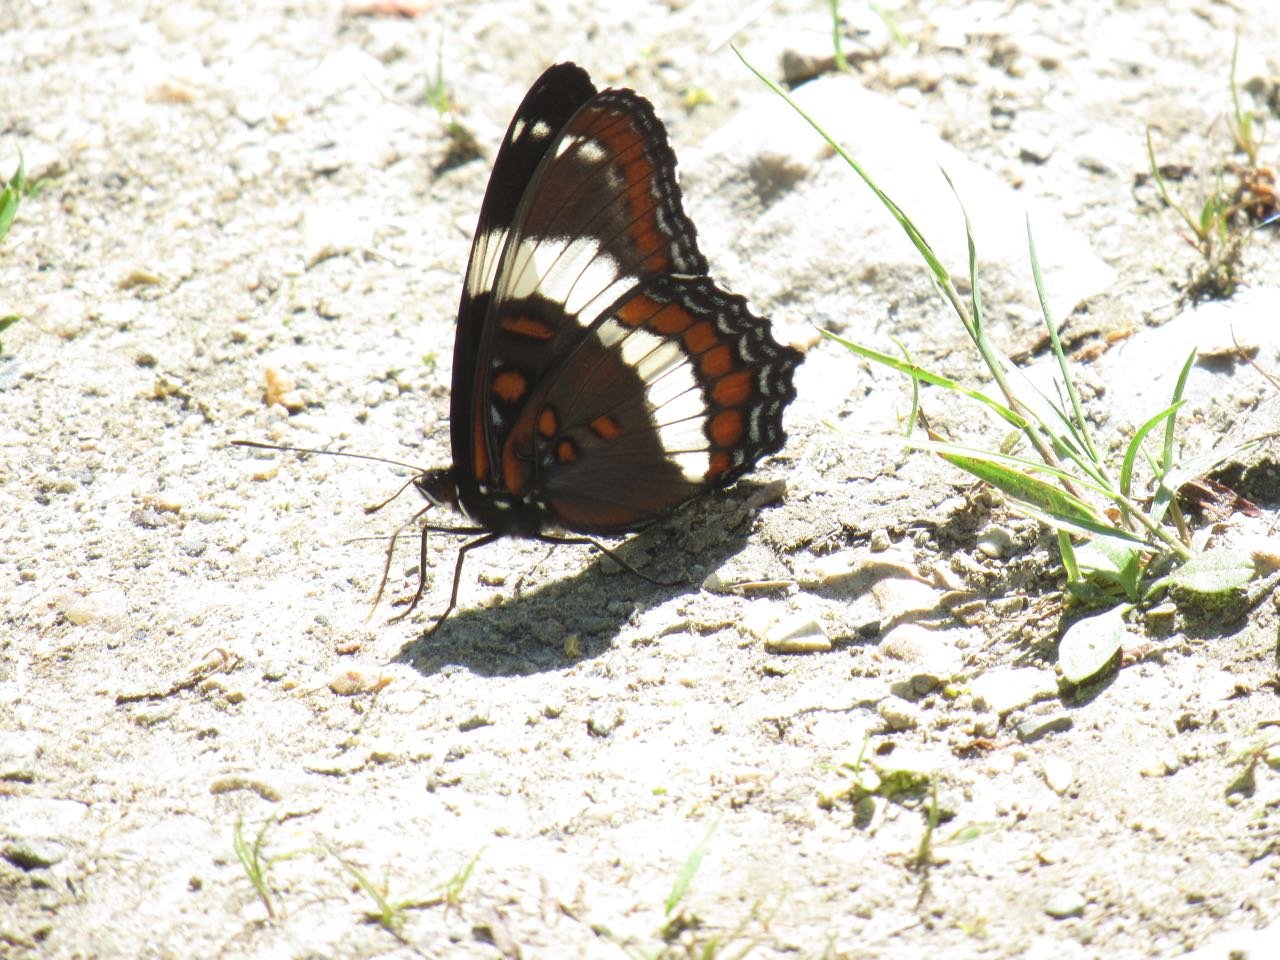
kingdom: Animalia
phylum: Arthropoda
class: Insecta
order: Lepidoptera
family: Nymphalidae
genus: Limenitis
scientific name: Limenitis arthemis
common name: Red-spotted Admiral
